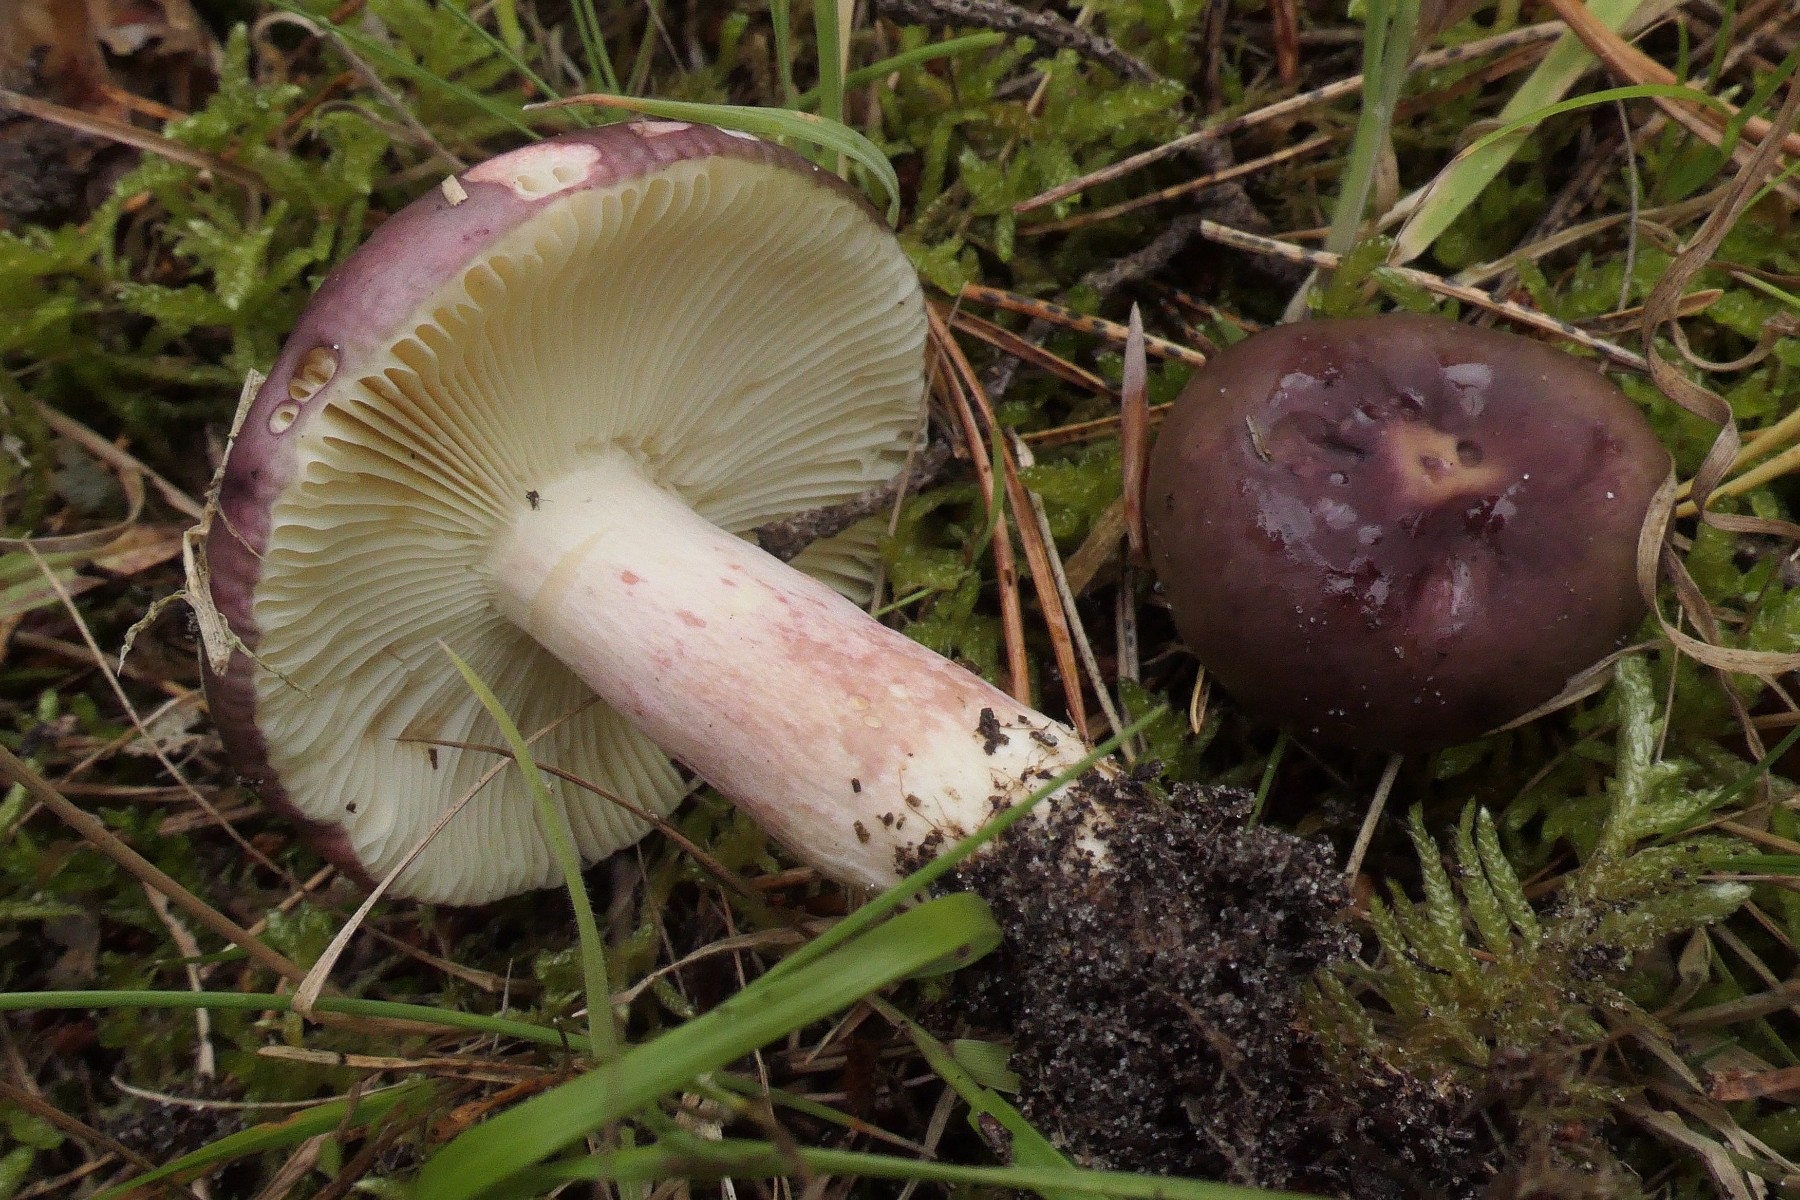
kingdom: Fungi
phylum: Basidiomycota
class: Agaricomycetes
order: Russulales
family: Russulaceae
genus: Russula
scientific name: Russula sardonia
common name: citronbladet skørhat
